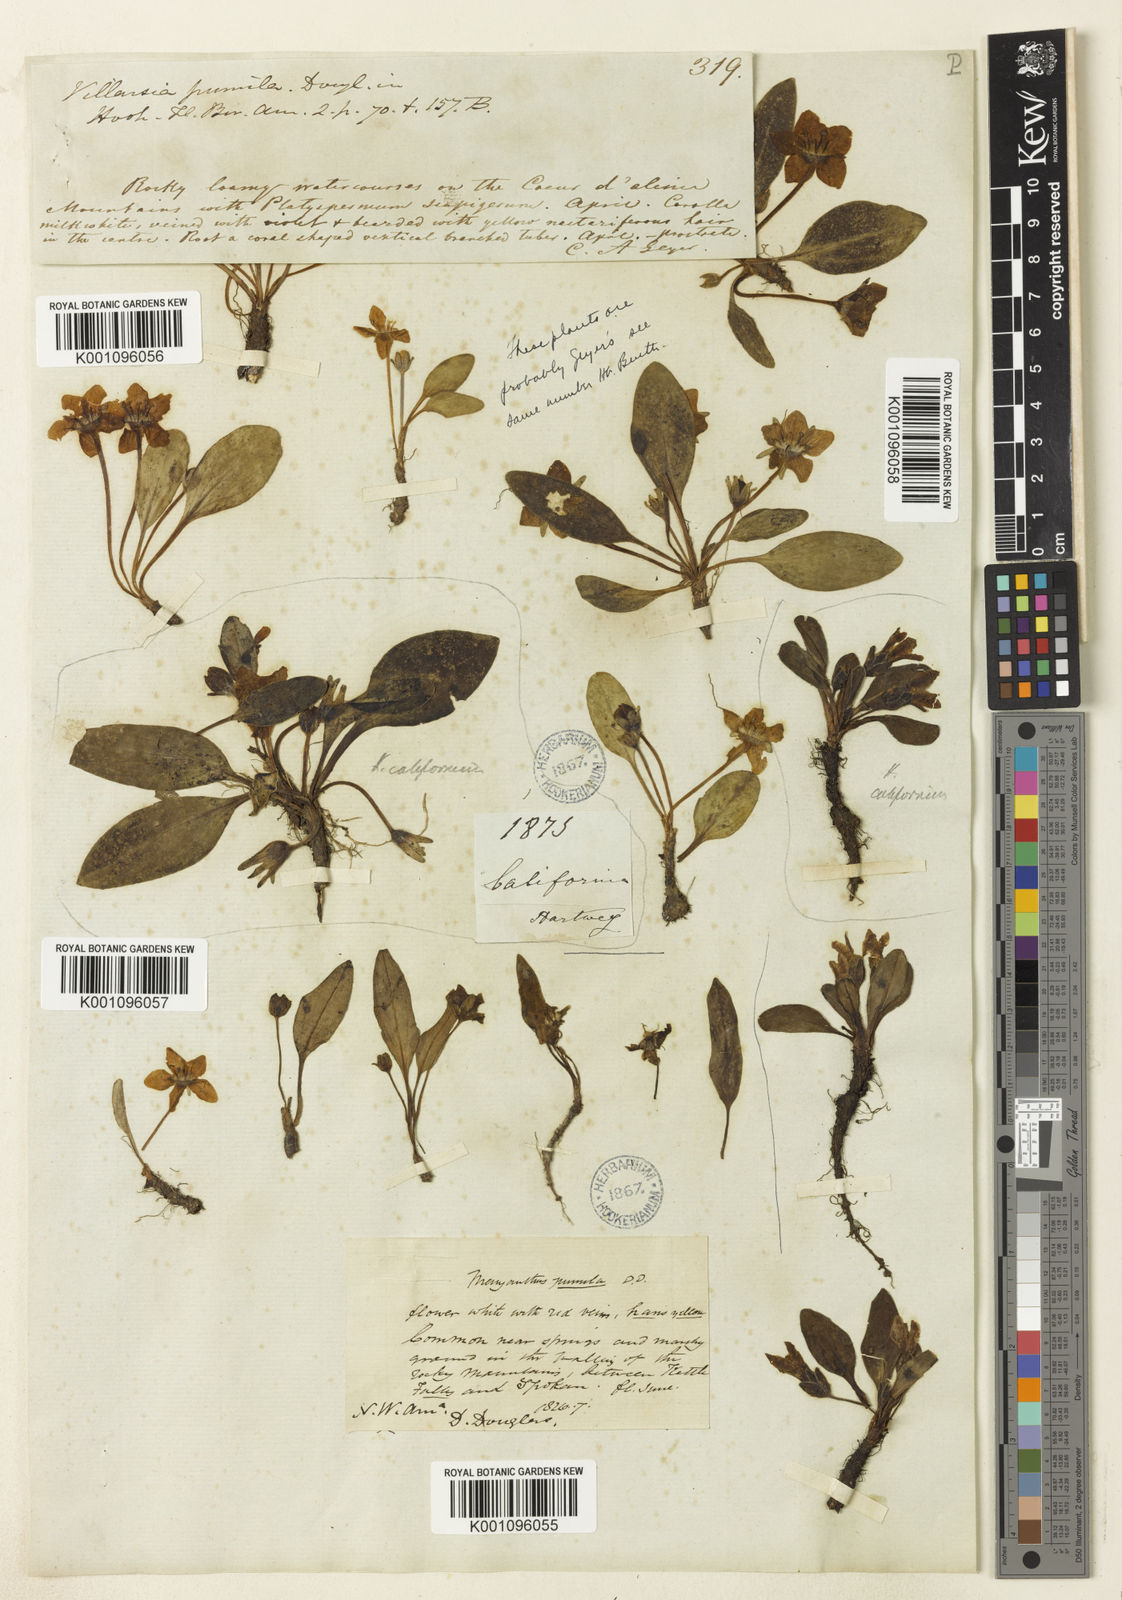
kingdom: Plantae
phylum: Tracheophyta
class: Magnoliopsida
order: Boraginales
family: Hydrophyllaceae
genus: Hesperochiron
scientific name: Hesperochiron pumilus
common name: Dwarf hesperochiron
